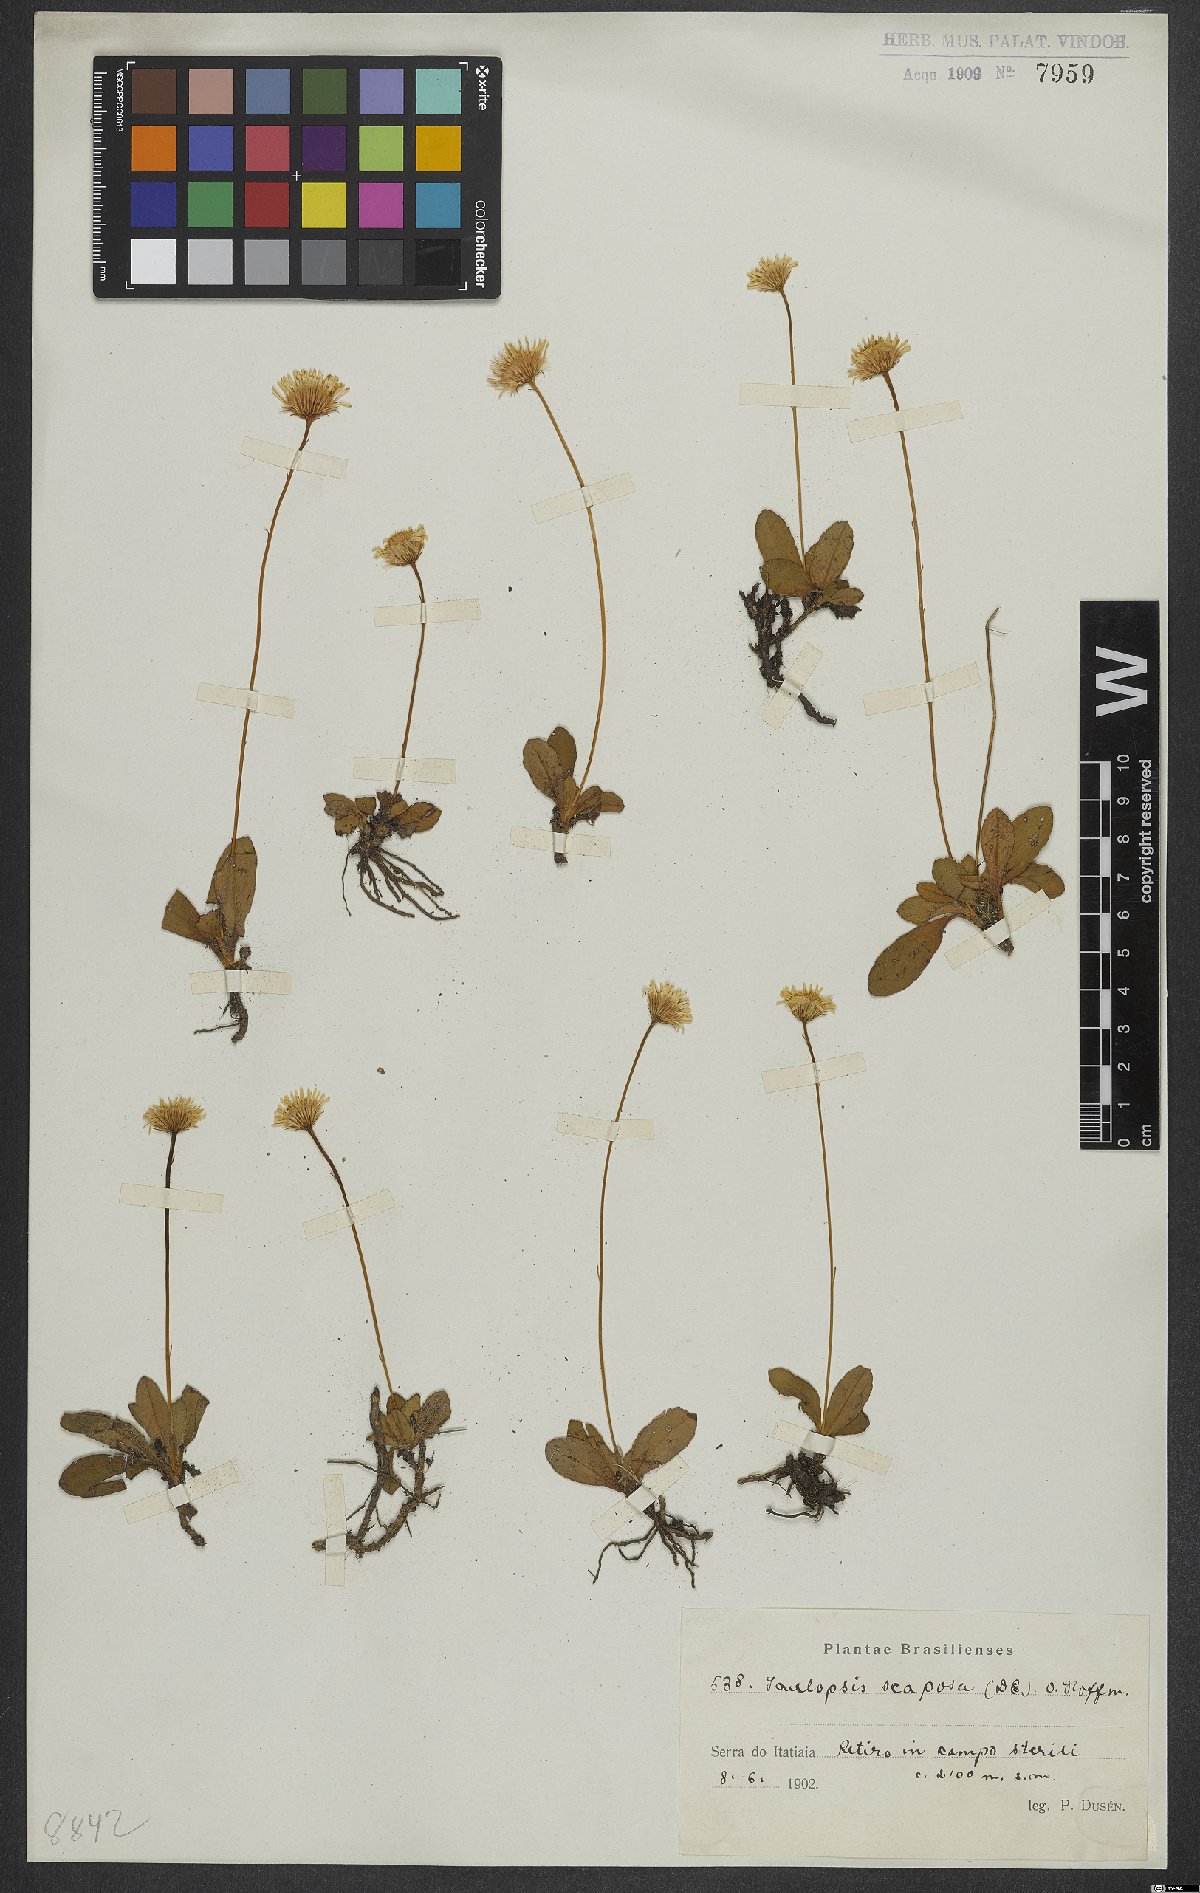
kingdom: Plantae
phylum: Tracheophyta
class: Magnoliopsida
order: Asterales
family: Asteraceae
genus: Inulopsis
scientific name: Inulopsis scaposa
